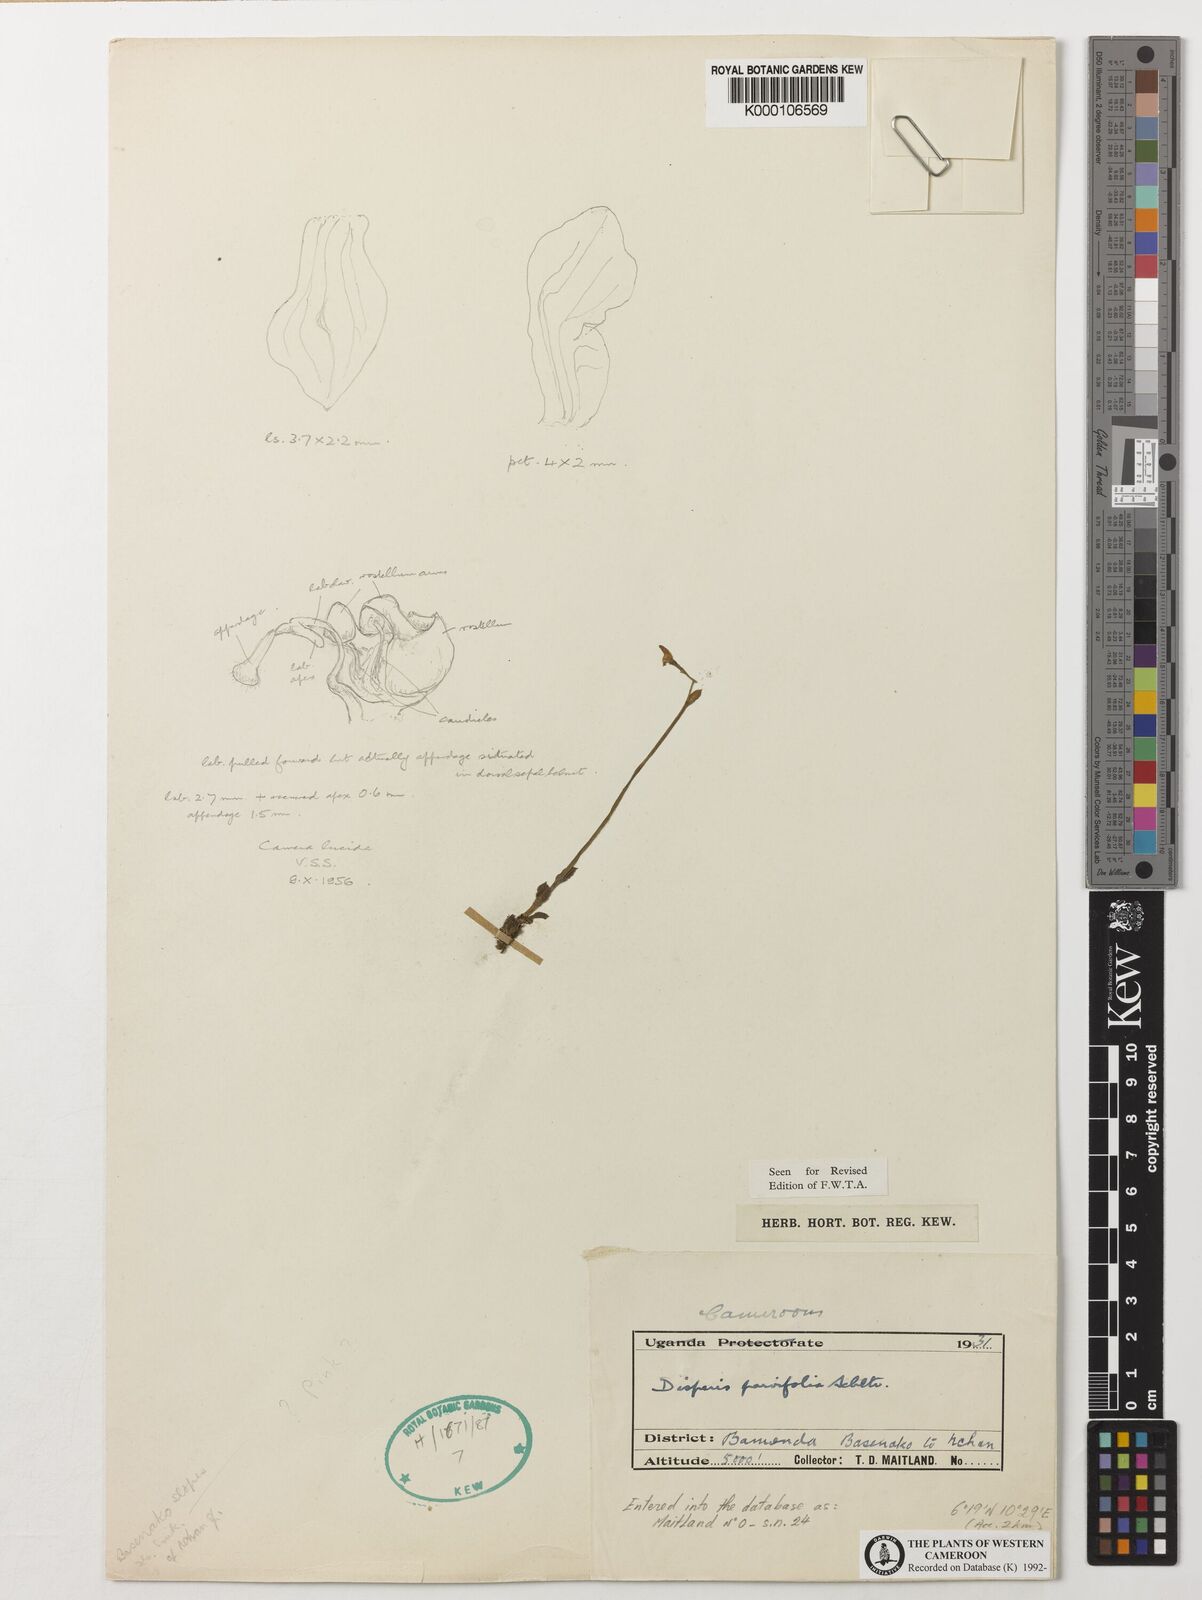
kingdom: Plantae
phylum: Tracheophyta
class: Liliopsida
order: Asparagales
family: Orchidaceae
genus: Disperis
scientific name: Disperis parvifolia
